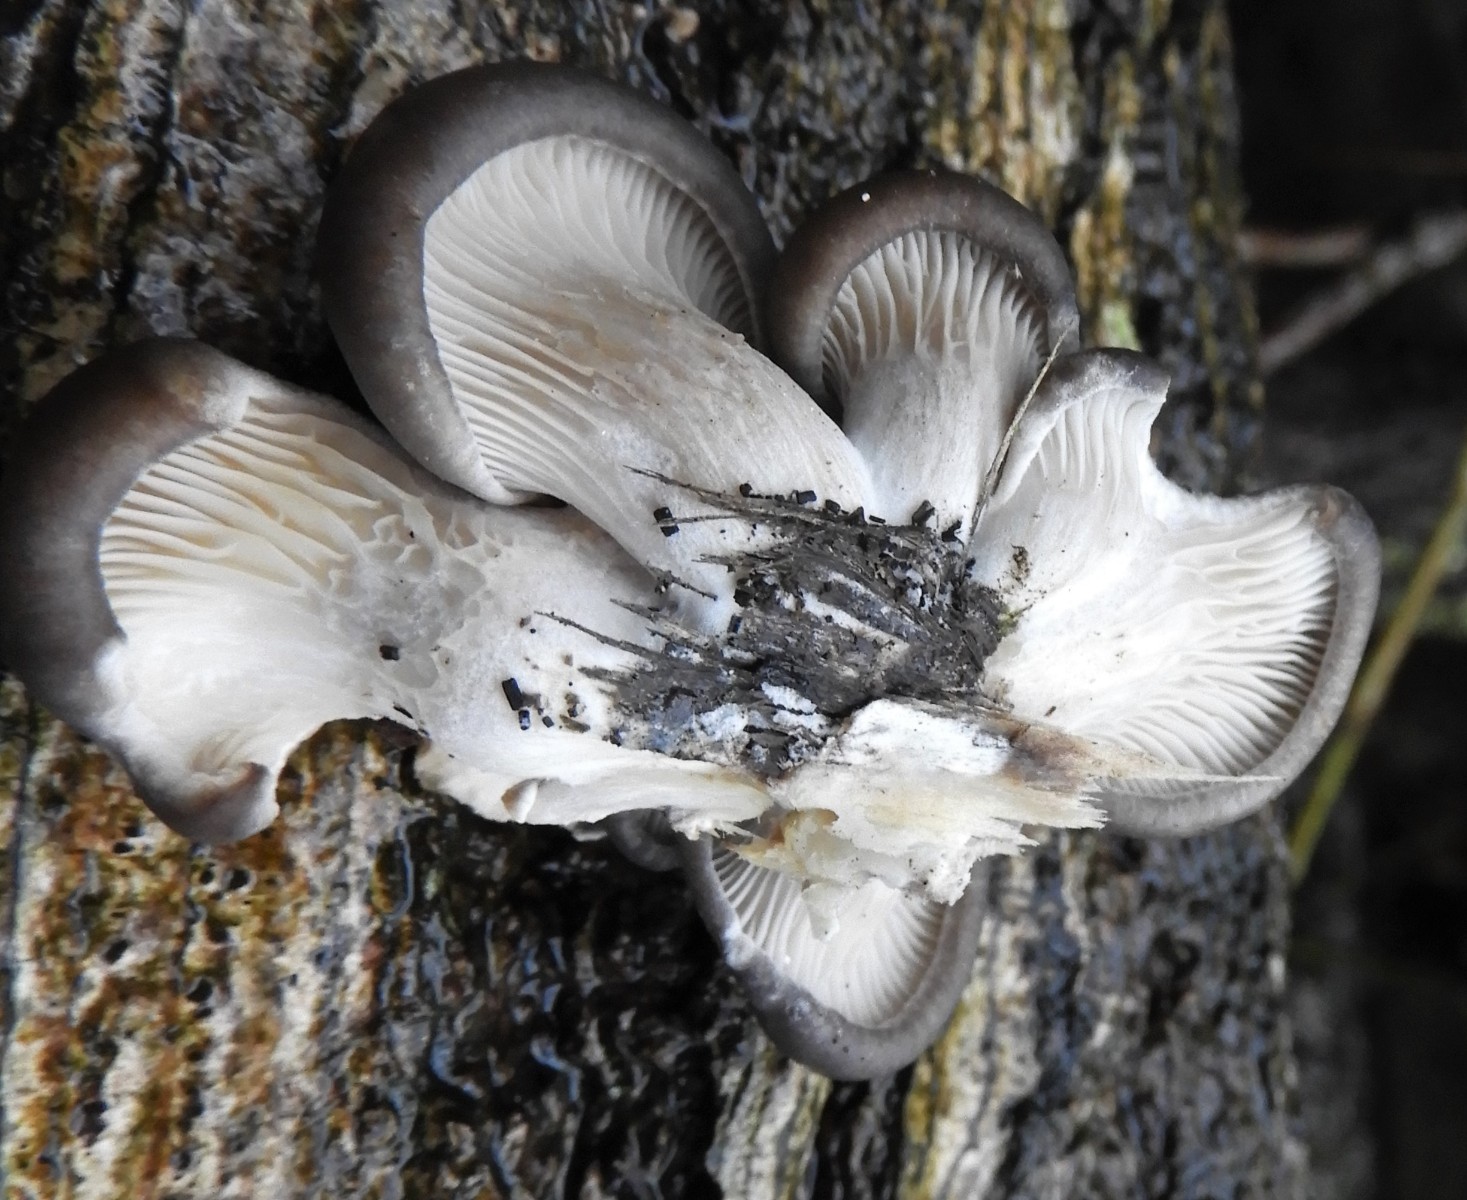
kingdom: Fungi
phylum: Basidiomycota
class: Agaricomycetes
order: Agaricales
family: Pleurotaceae
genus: Pleurotus
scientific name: Pleurotus ostreatus
